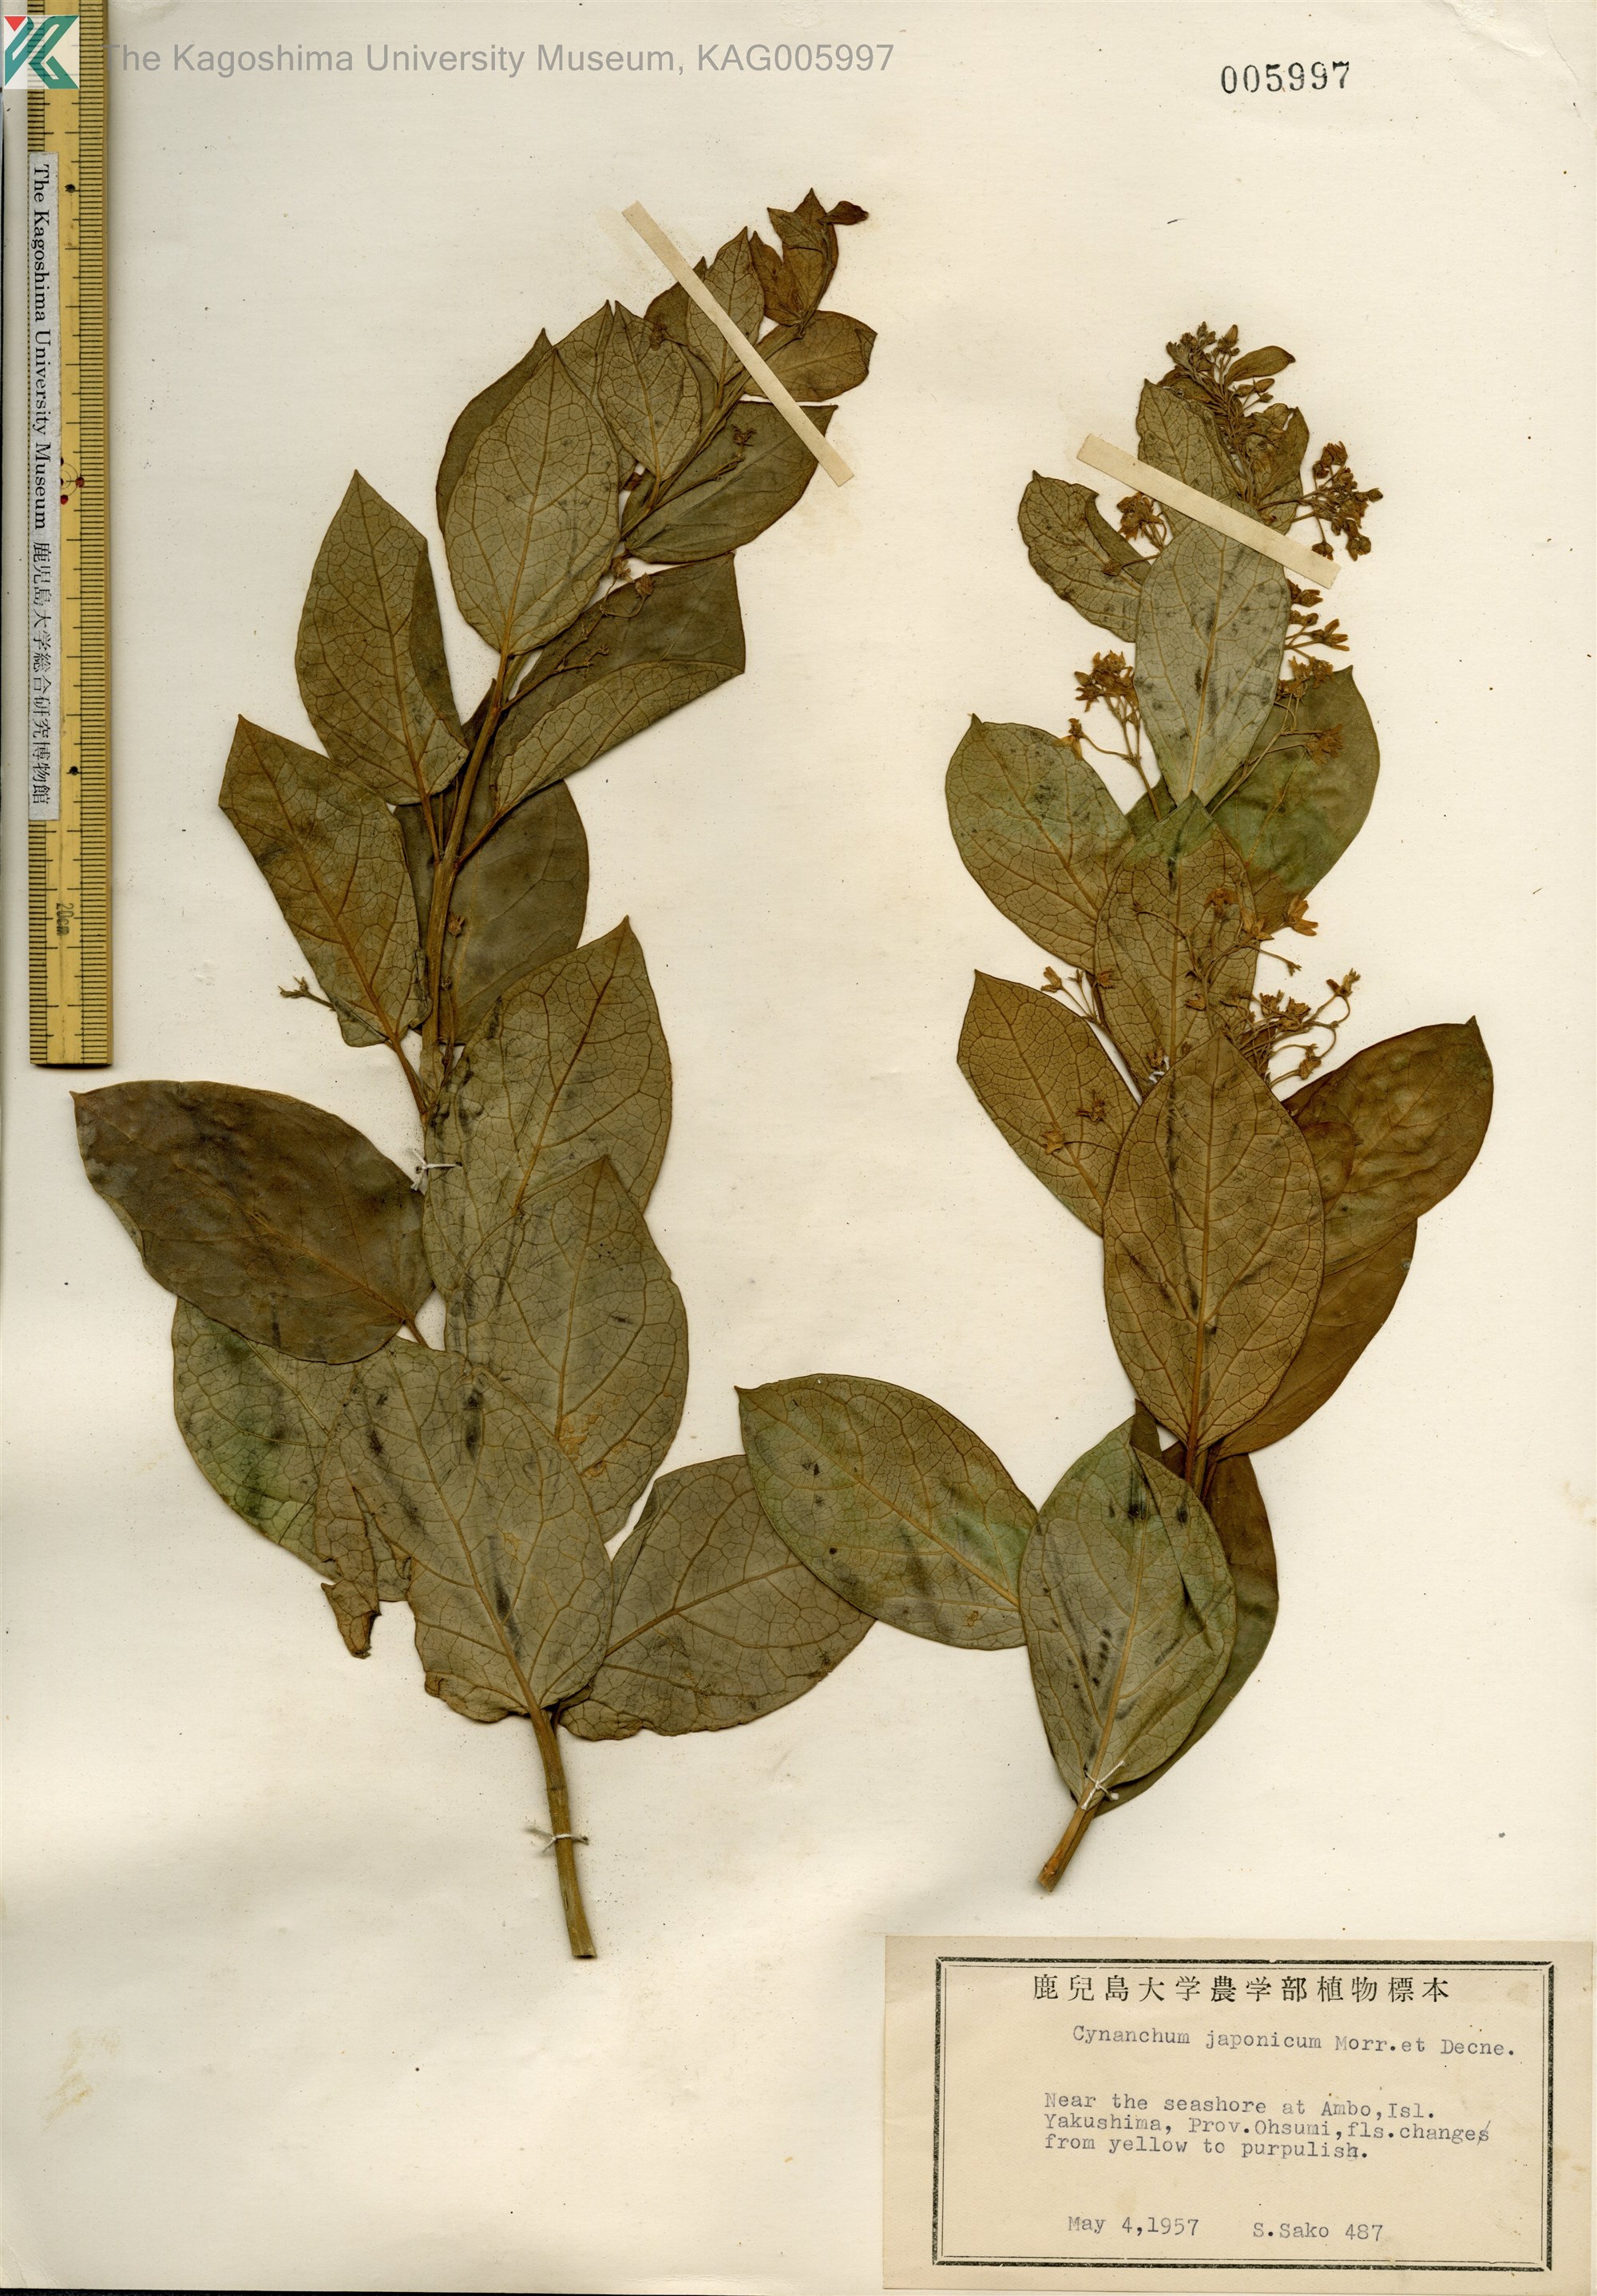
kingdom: Plantae
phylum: Tracheophyta
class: Magnoliopsida
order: Gentianales
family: Apocynaceae
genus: Vincetoxicum
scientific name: Vincetoxicum japonicum
